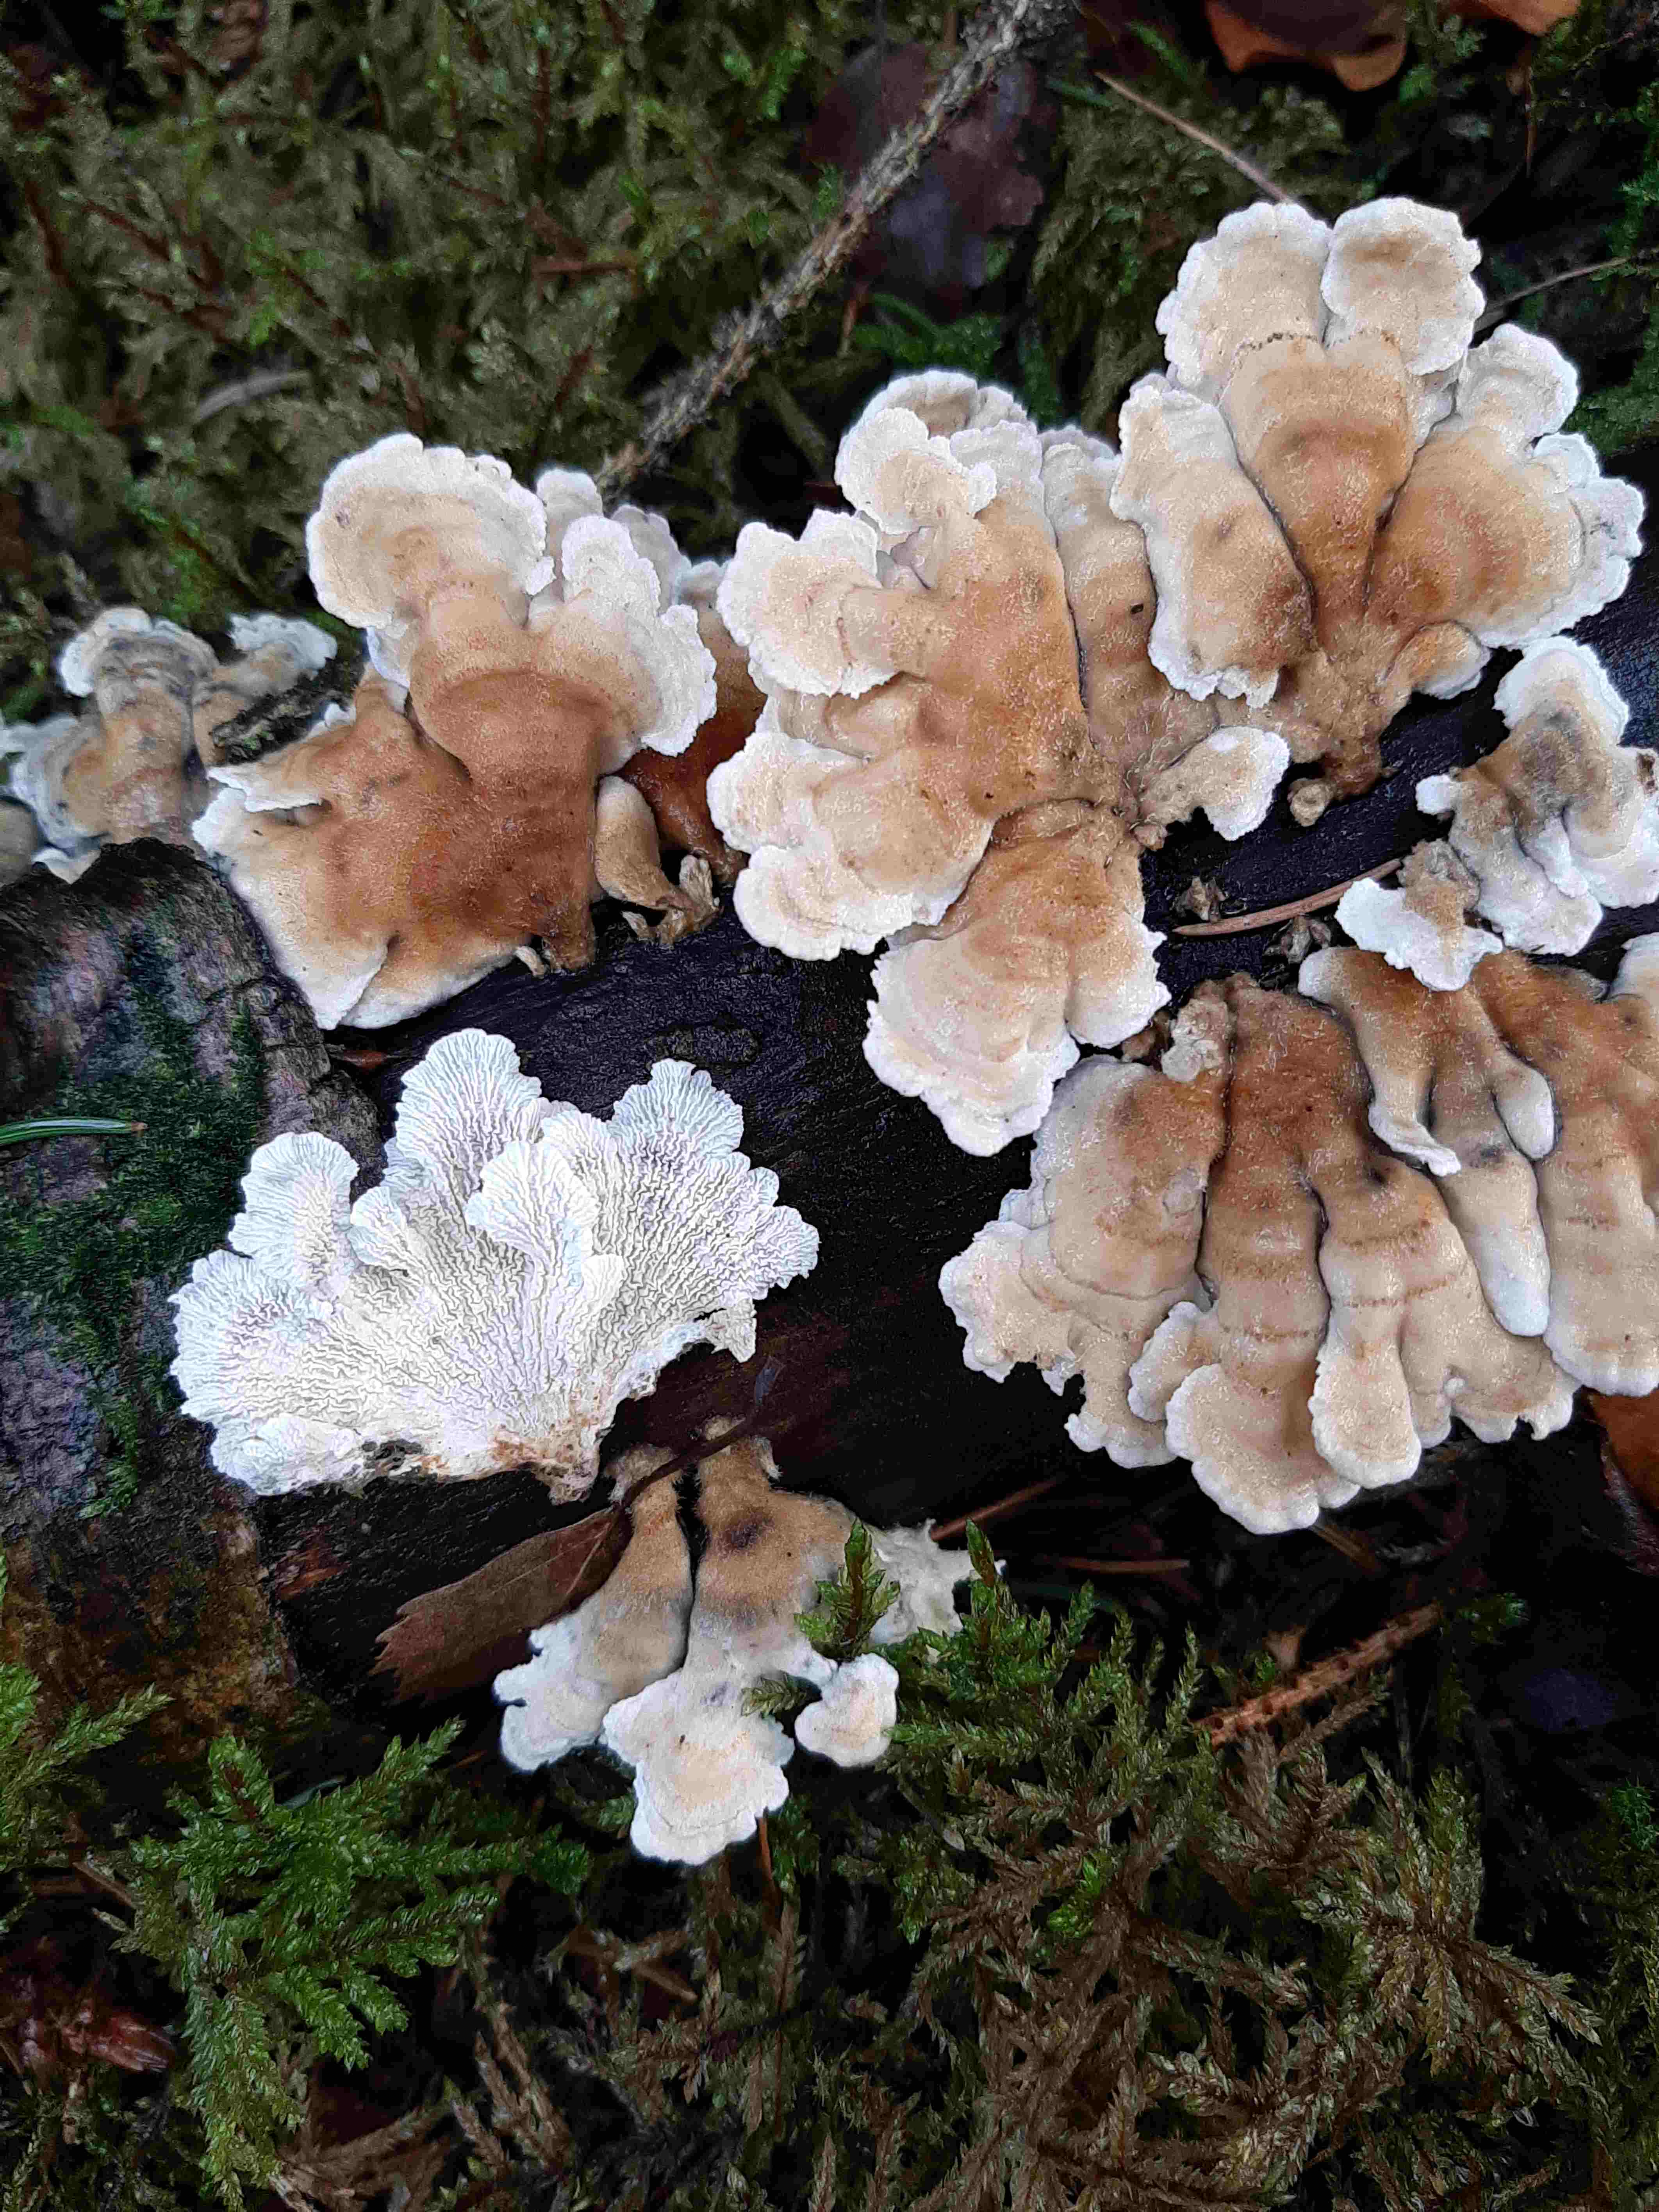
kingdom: Fungi
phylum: Basidiomycota
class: Agaricomycetes
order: Amylocorticiales
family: Amylocorticiaceae
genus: Plicaturopsis
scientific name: Plicaturopsis crispa
